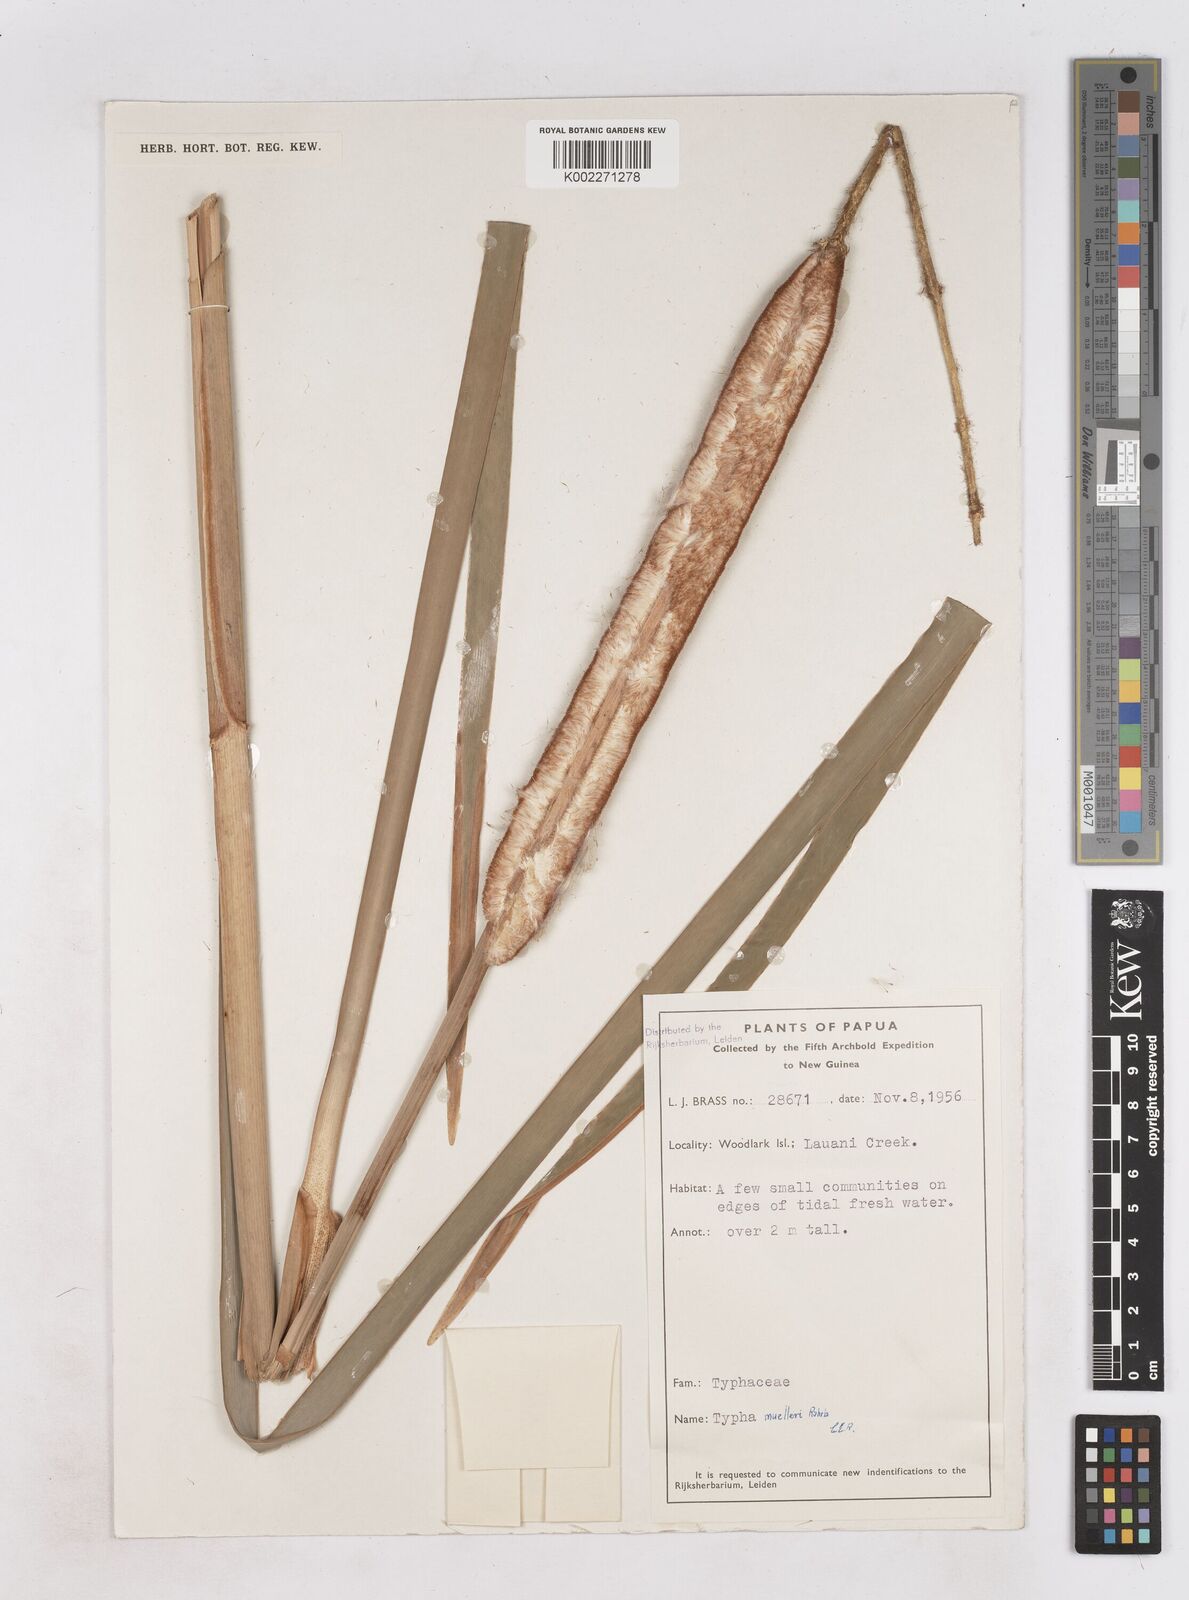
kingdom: Plantae
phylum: Tracheophyta
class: Liliopsida
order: Poales
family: Typhaceae
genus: Typha
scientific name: Typha orientalis
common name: Bullrush
